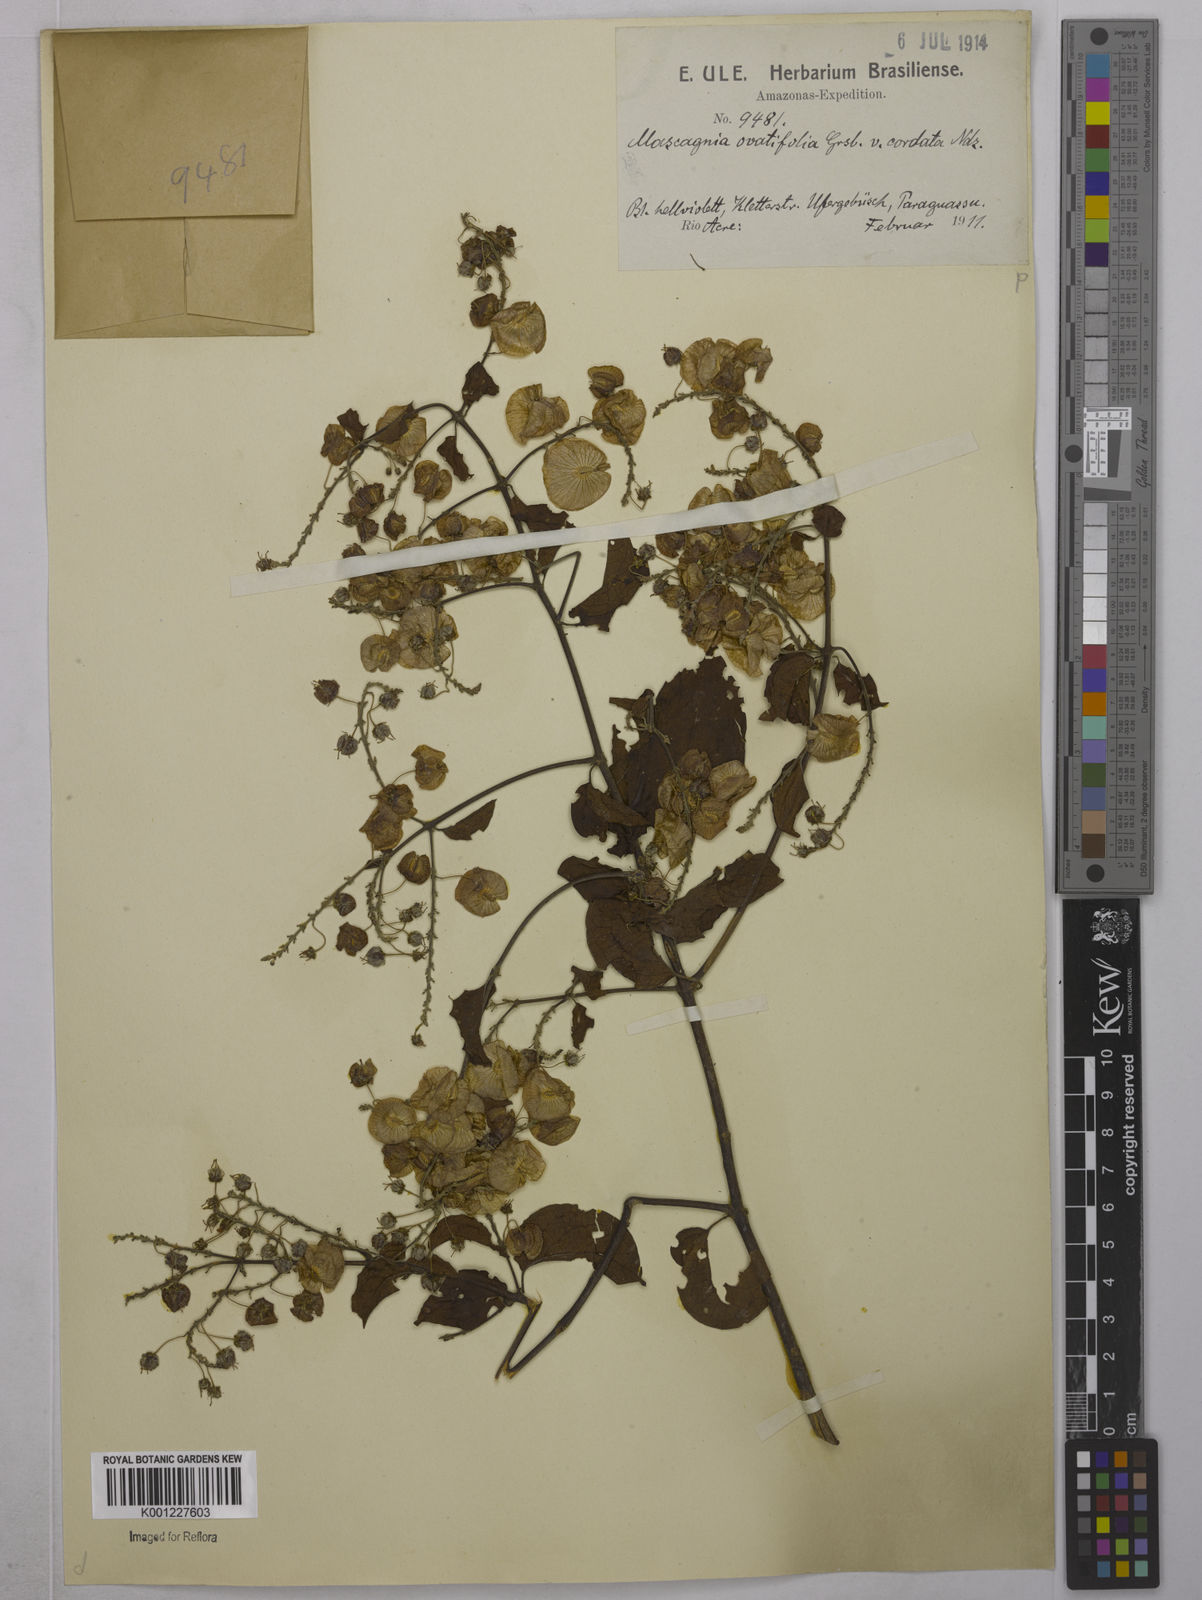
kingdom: Plantae
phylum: Tracheophyta
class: Magnoliopsida
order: Malpighiales
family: Malpighiaceae
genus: Mascagnia
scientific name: Mascagnia divaricata
